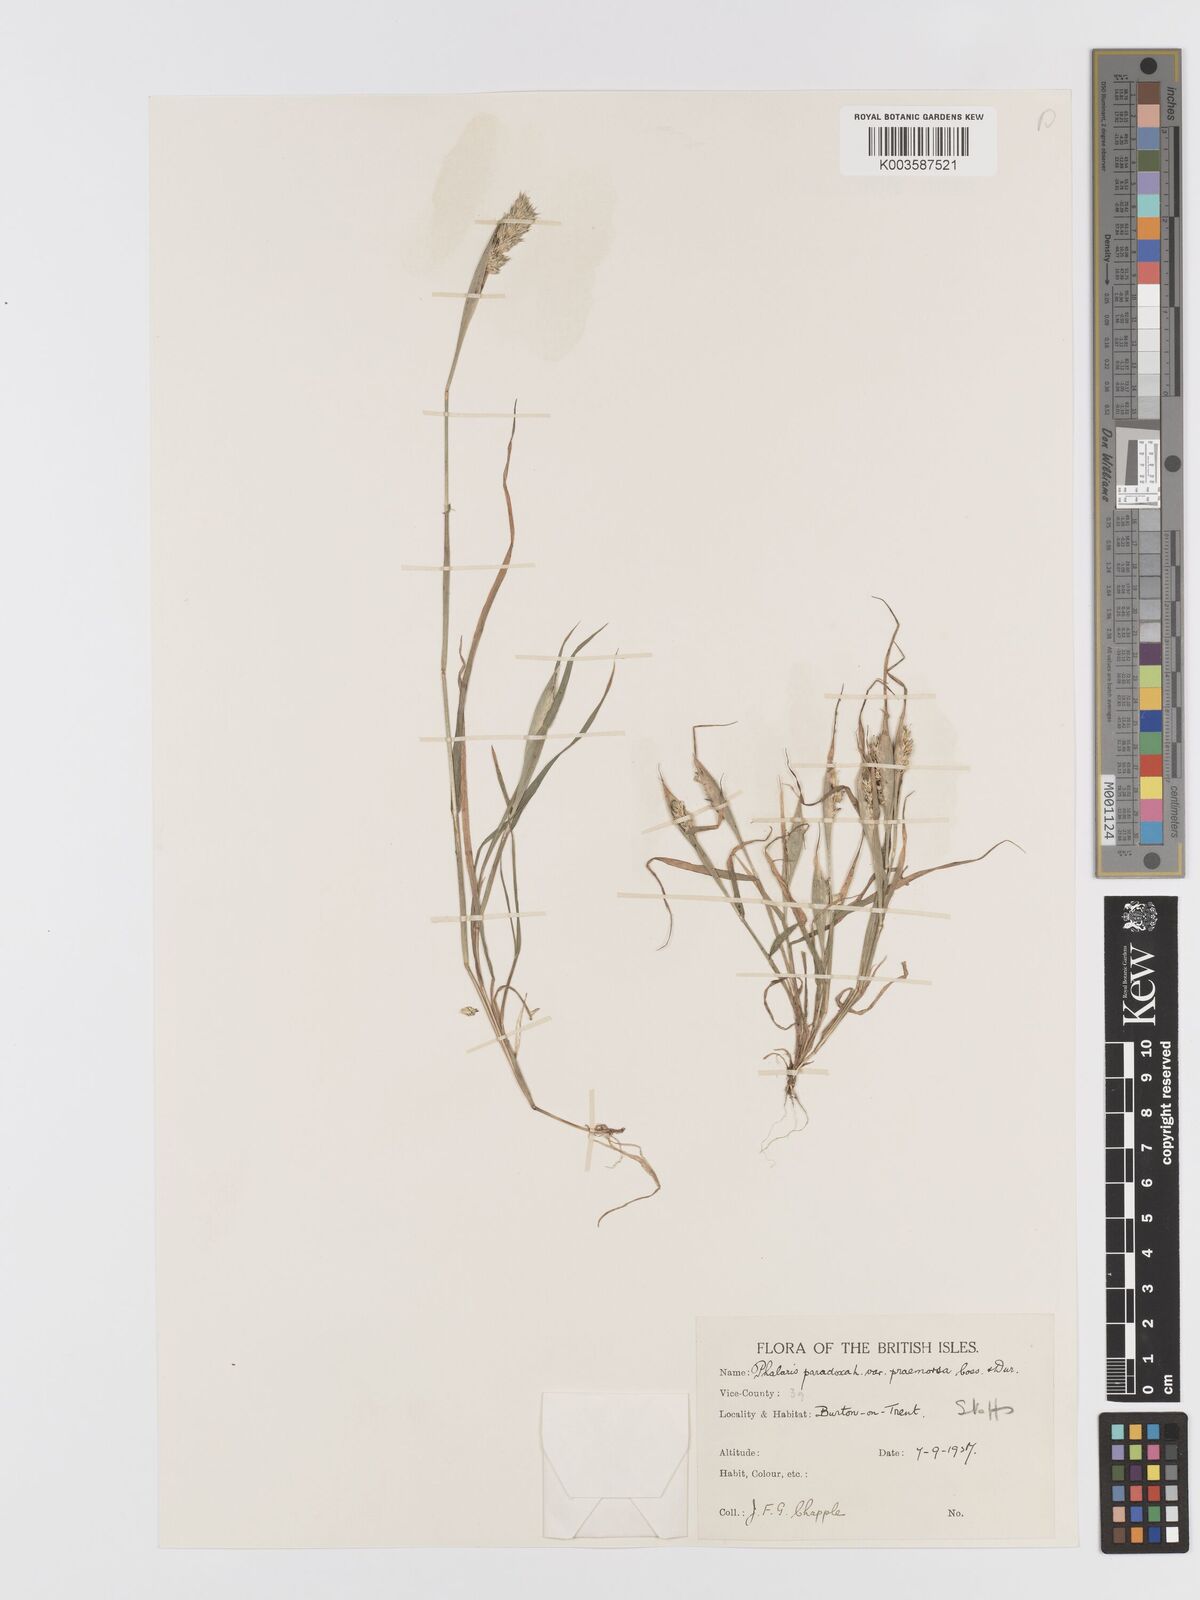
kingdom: Plantae
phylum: Tracheophyta
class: Liliopsida
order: Poales
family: Poaceae
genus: Phalaris
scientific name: Phalaris paradoxa
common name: Awned canary-grass
